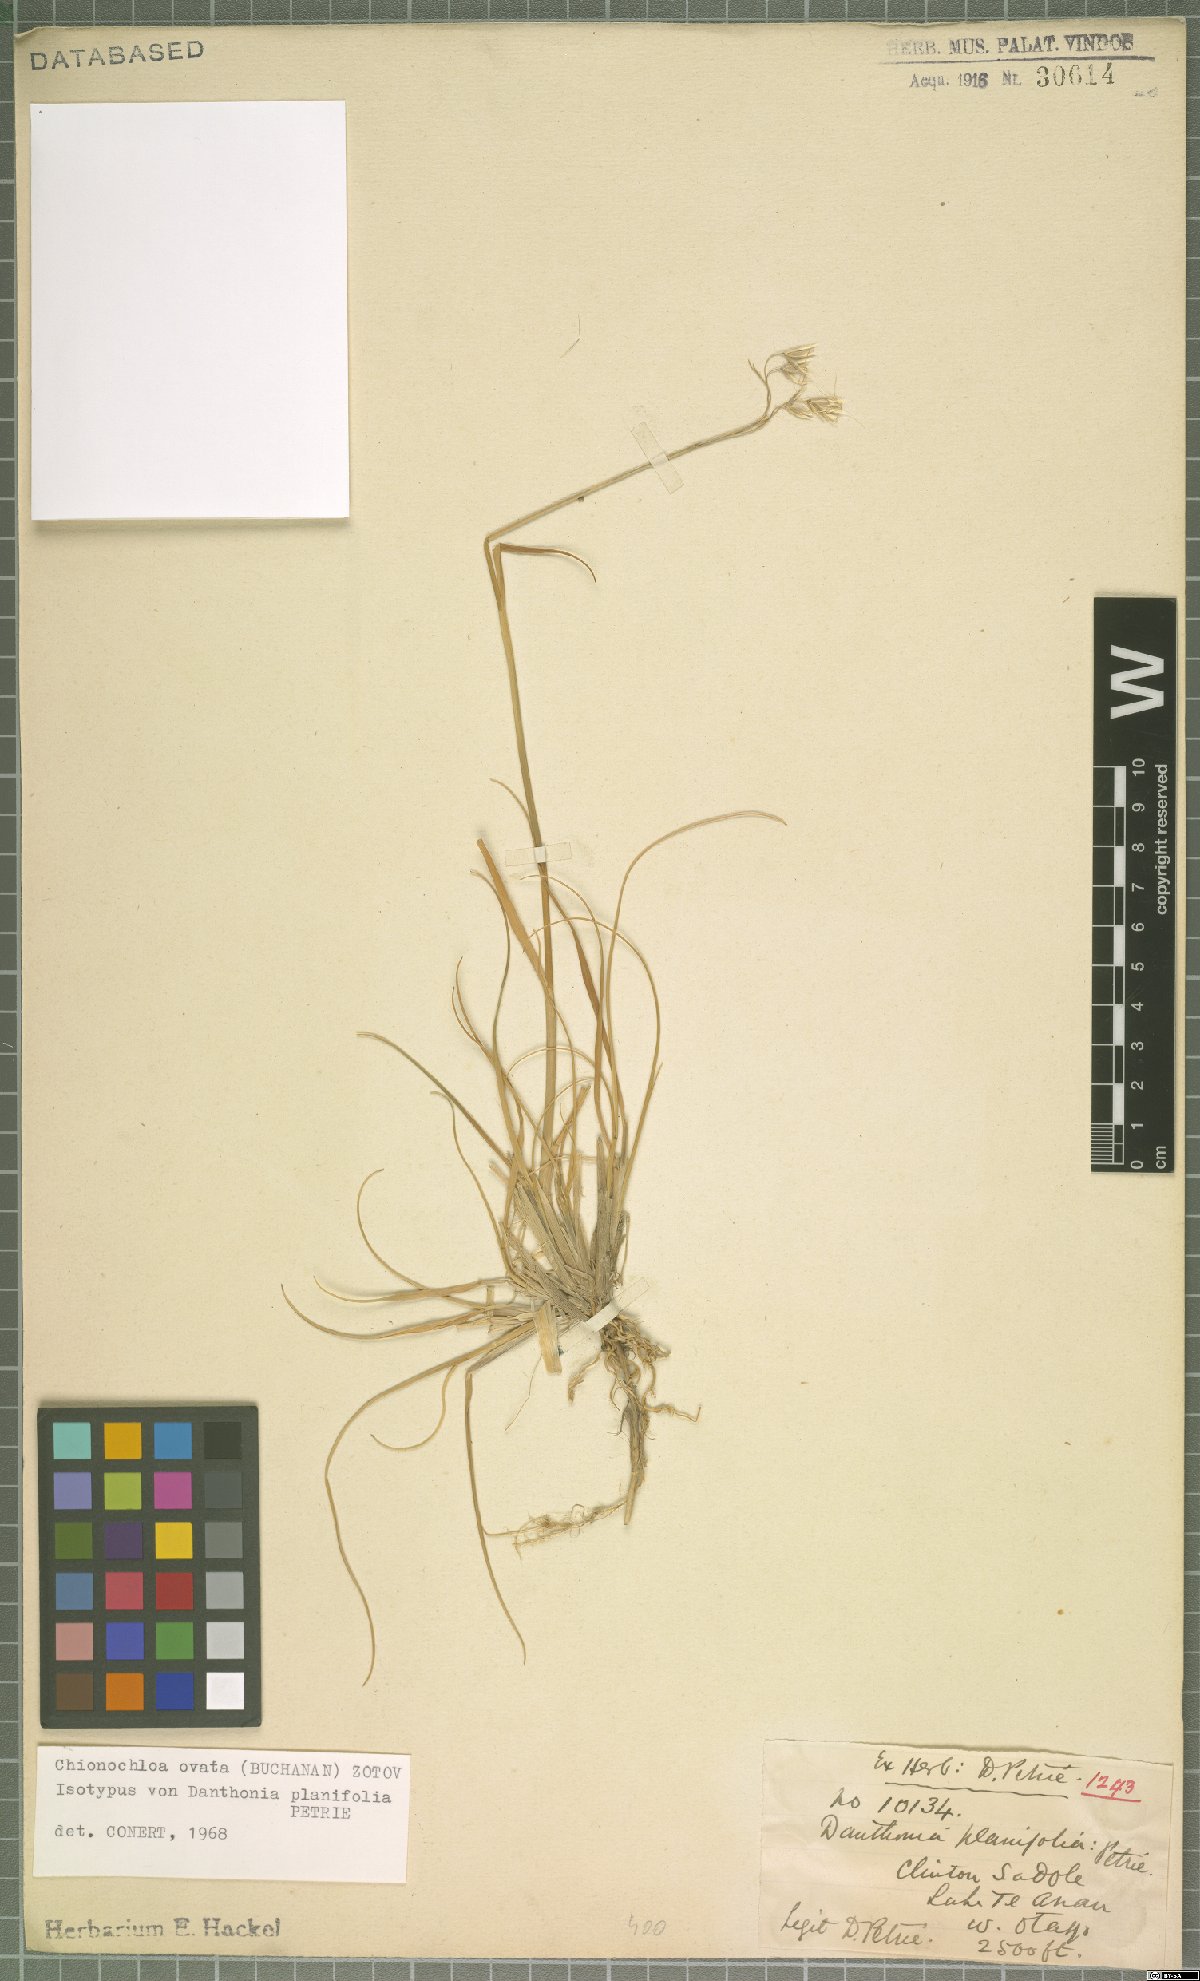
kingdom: Plantae
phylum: Tracheophyta
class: Liliopsida
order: Poales
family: Poaceae
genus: Chionochloa
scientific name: Chionochloa ovata
